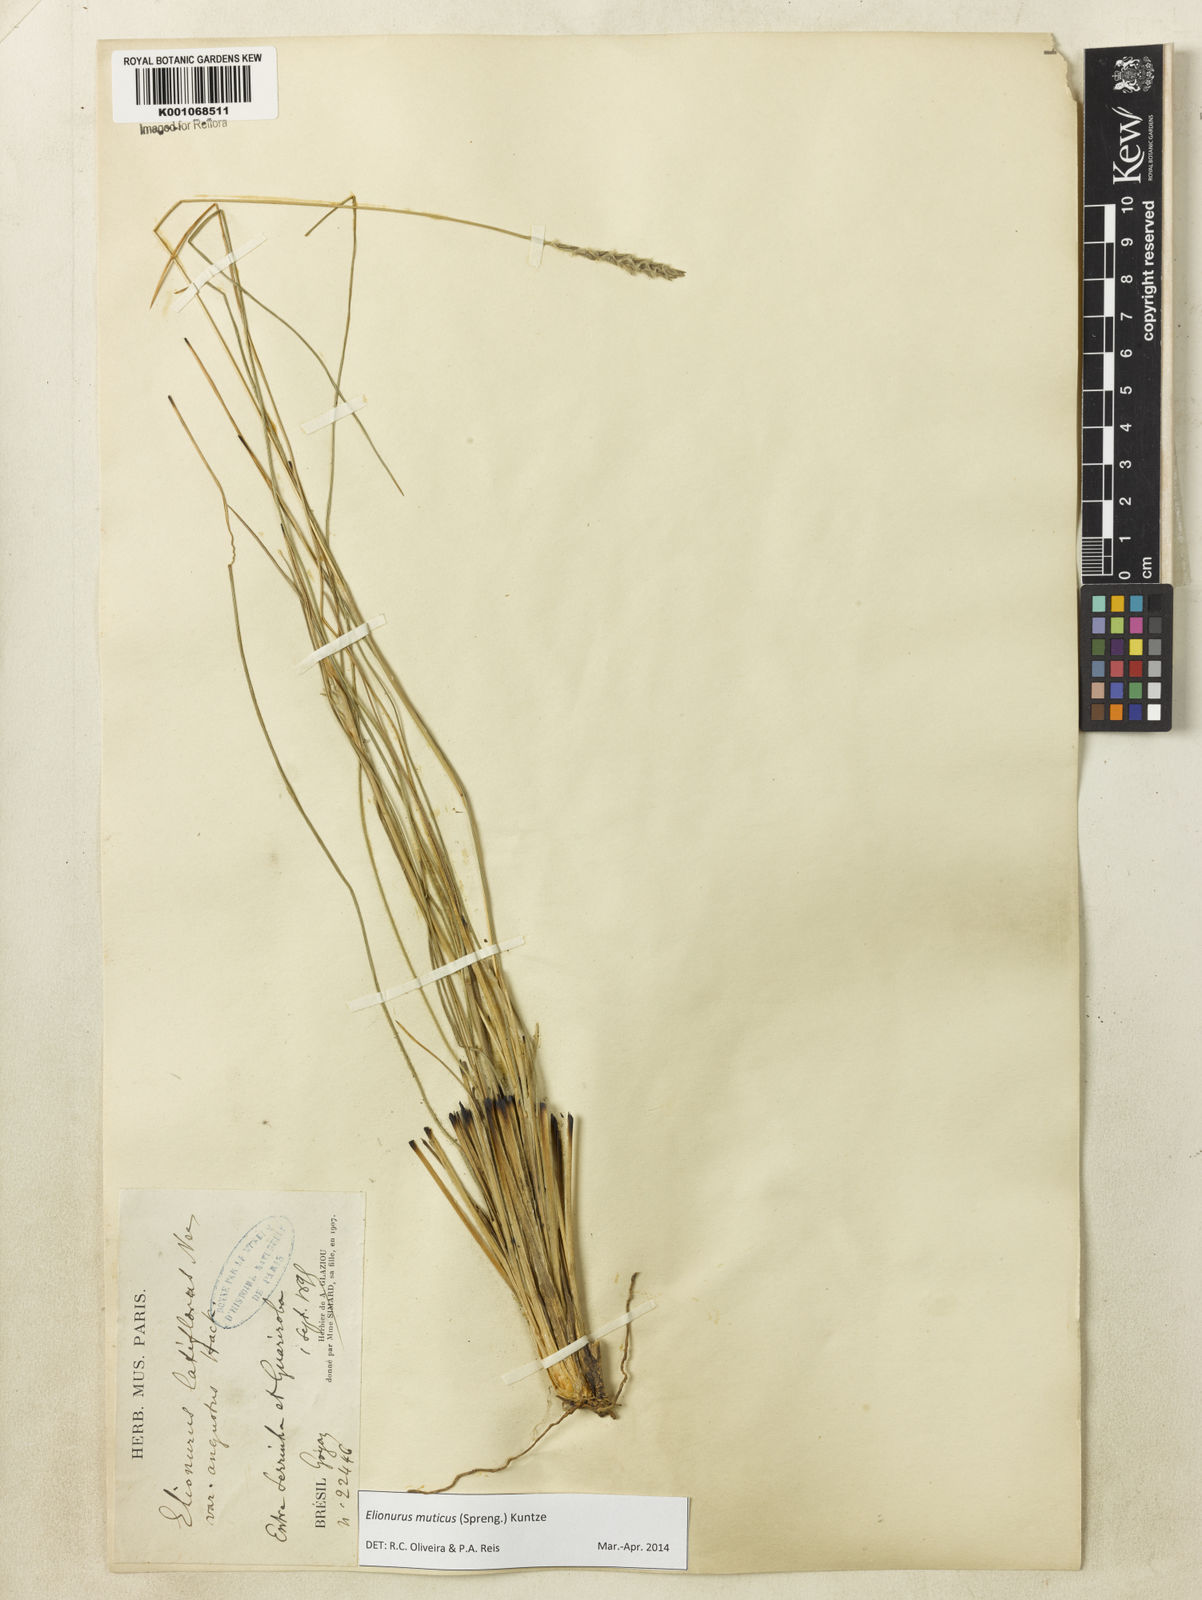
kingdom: Plantae
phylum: Tracheophyta
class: Liliopsida
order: Poales
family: Poaceae
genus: Elionurus
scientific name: Elionurus muticus
